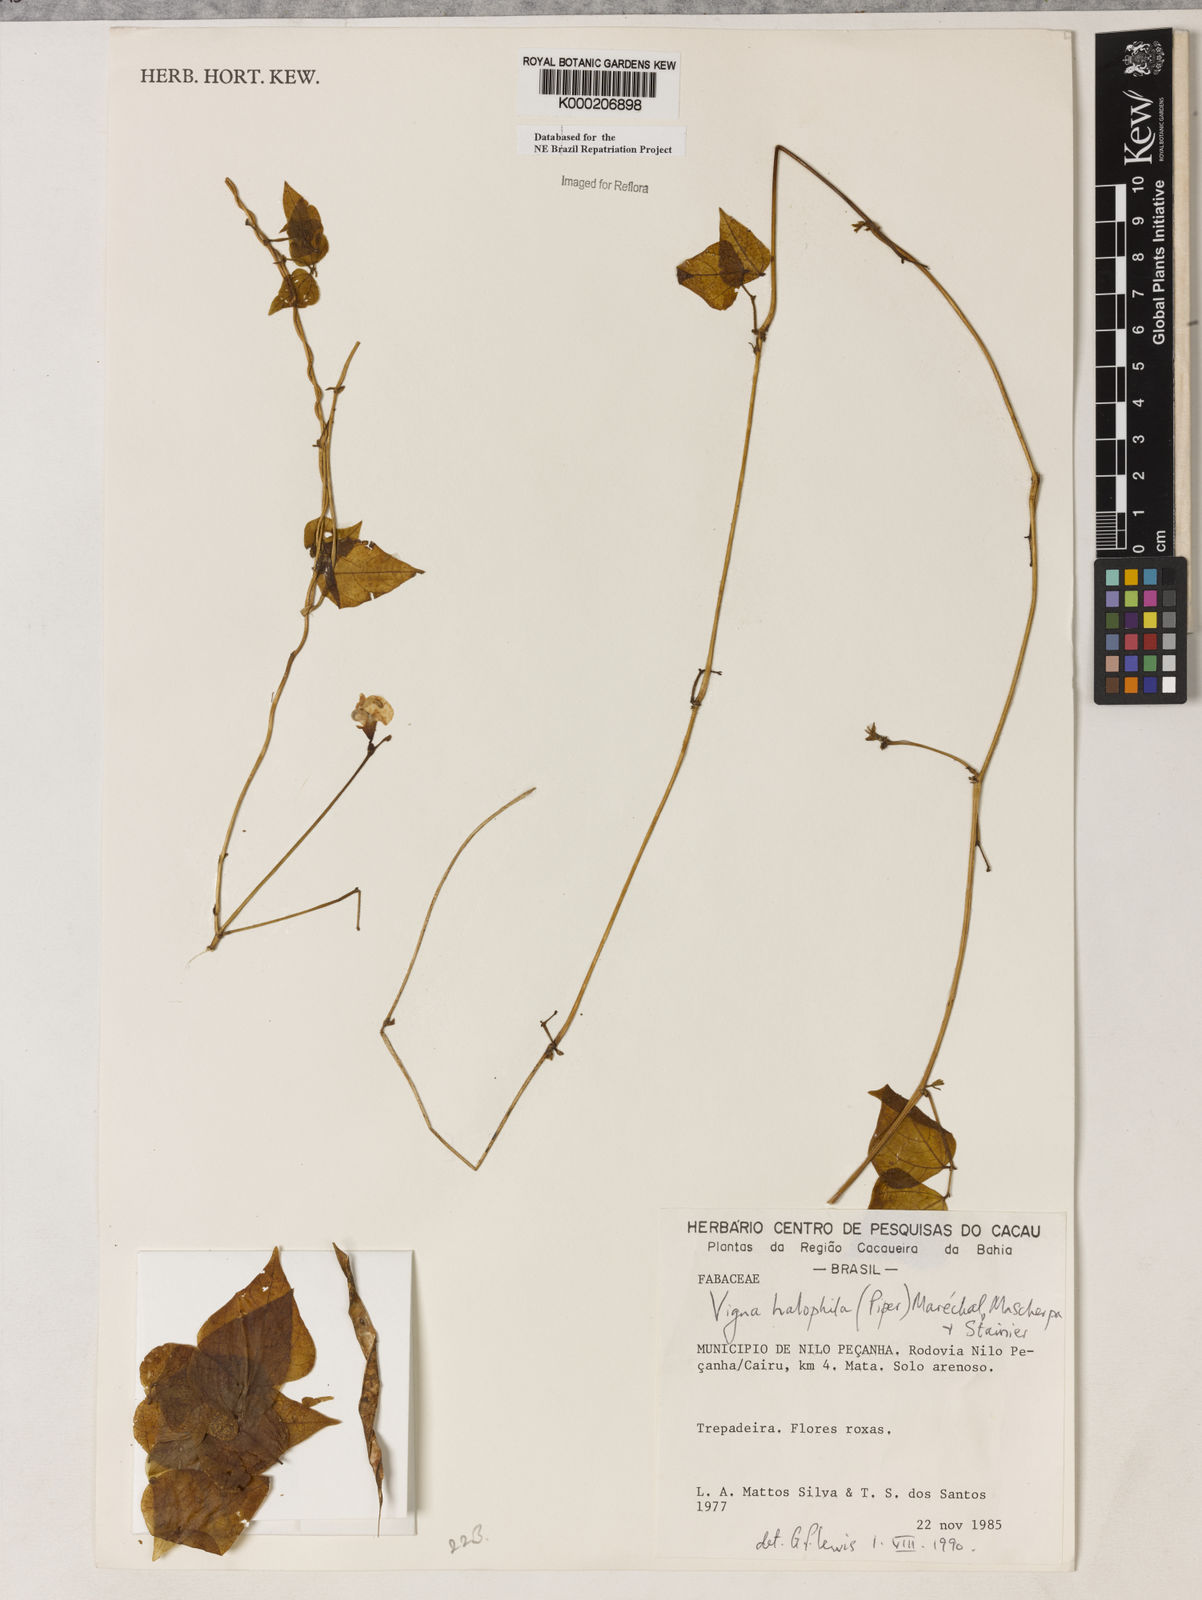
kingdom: Plantae
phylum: Tracheophyta
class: Magnoliopsida
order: Fabales
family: Fabaceae
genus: Vigna
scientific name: Vigna
